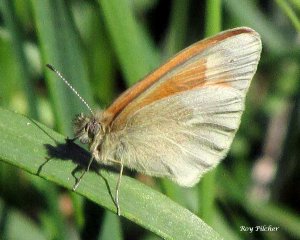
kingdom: Animalia
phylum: Arthropoda
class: Insecta
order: Lepidoptera
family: Nymphalidae
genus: Coenonympha
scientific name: Coenonympha tullia
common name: Large Heath
